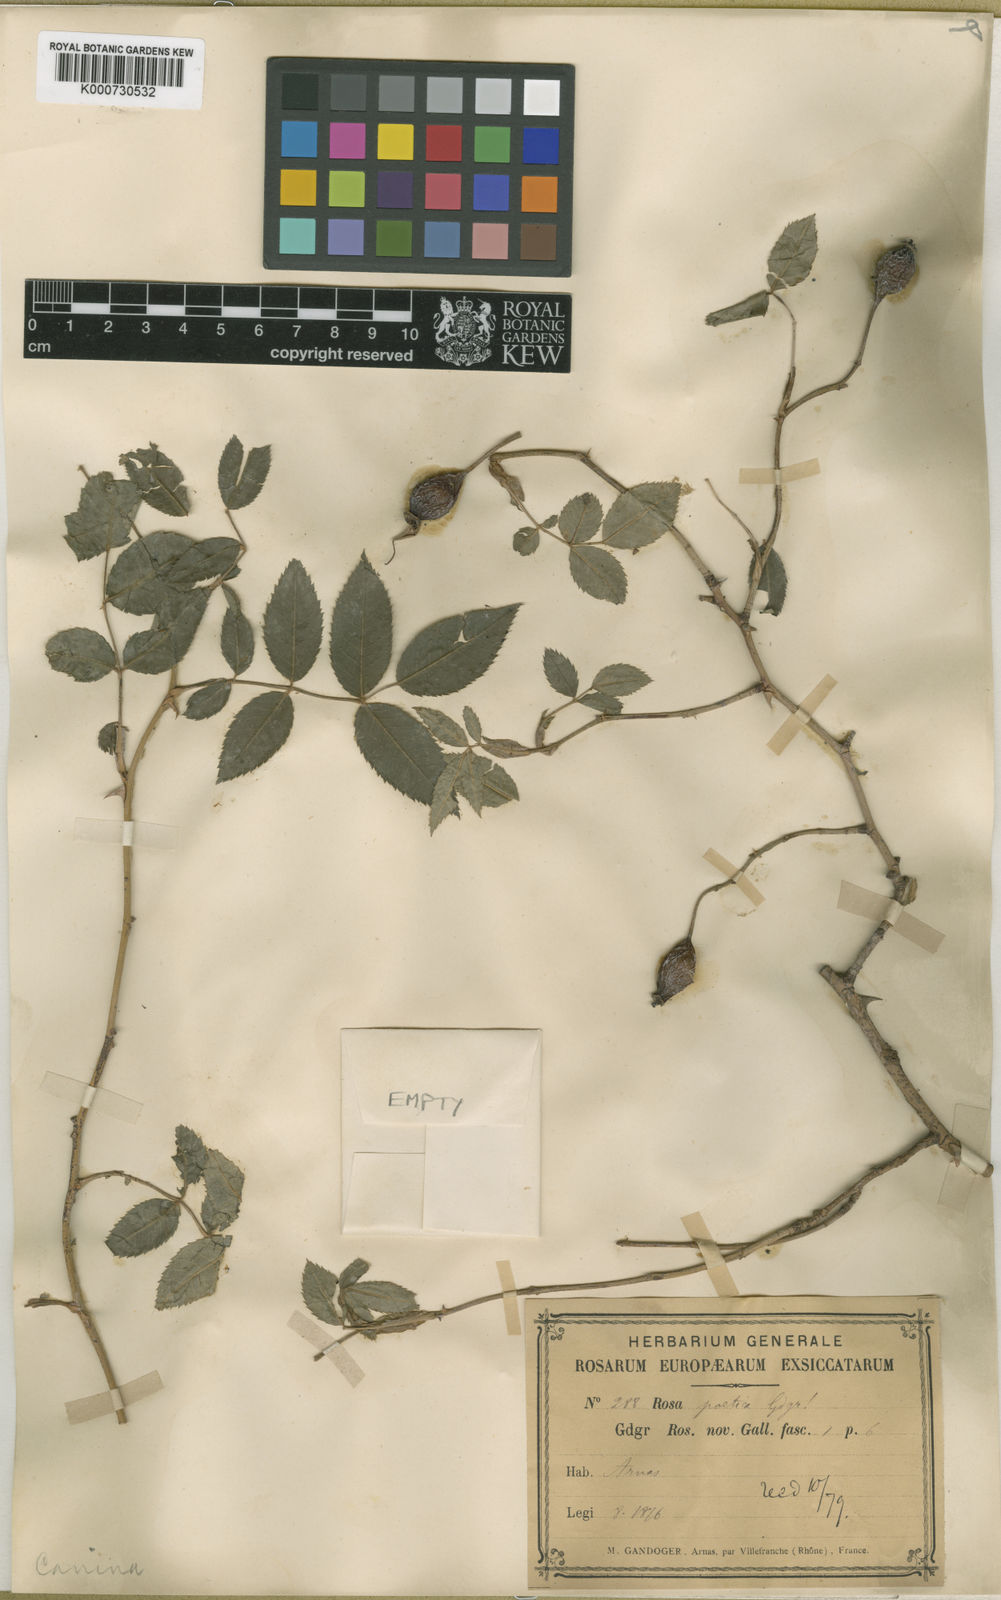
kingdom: Plantae
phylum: Tracheophyta
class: Magnoliopsida
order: Rosales
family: Rosaceae
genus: Rosa
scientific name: Rosa canina
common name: Dog rose
